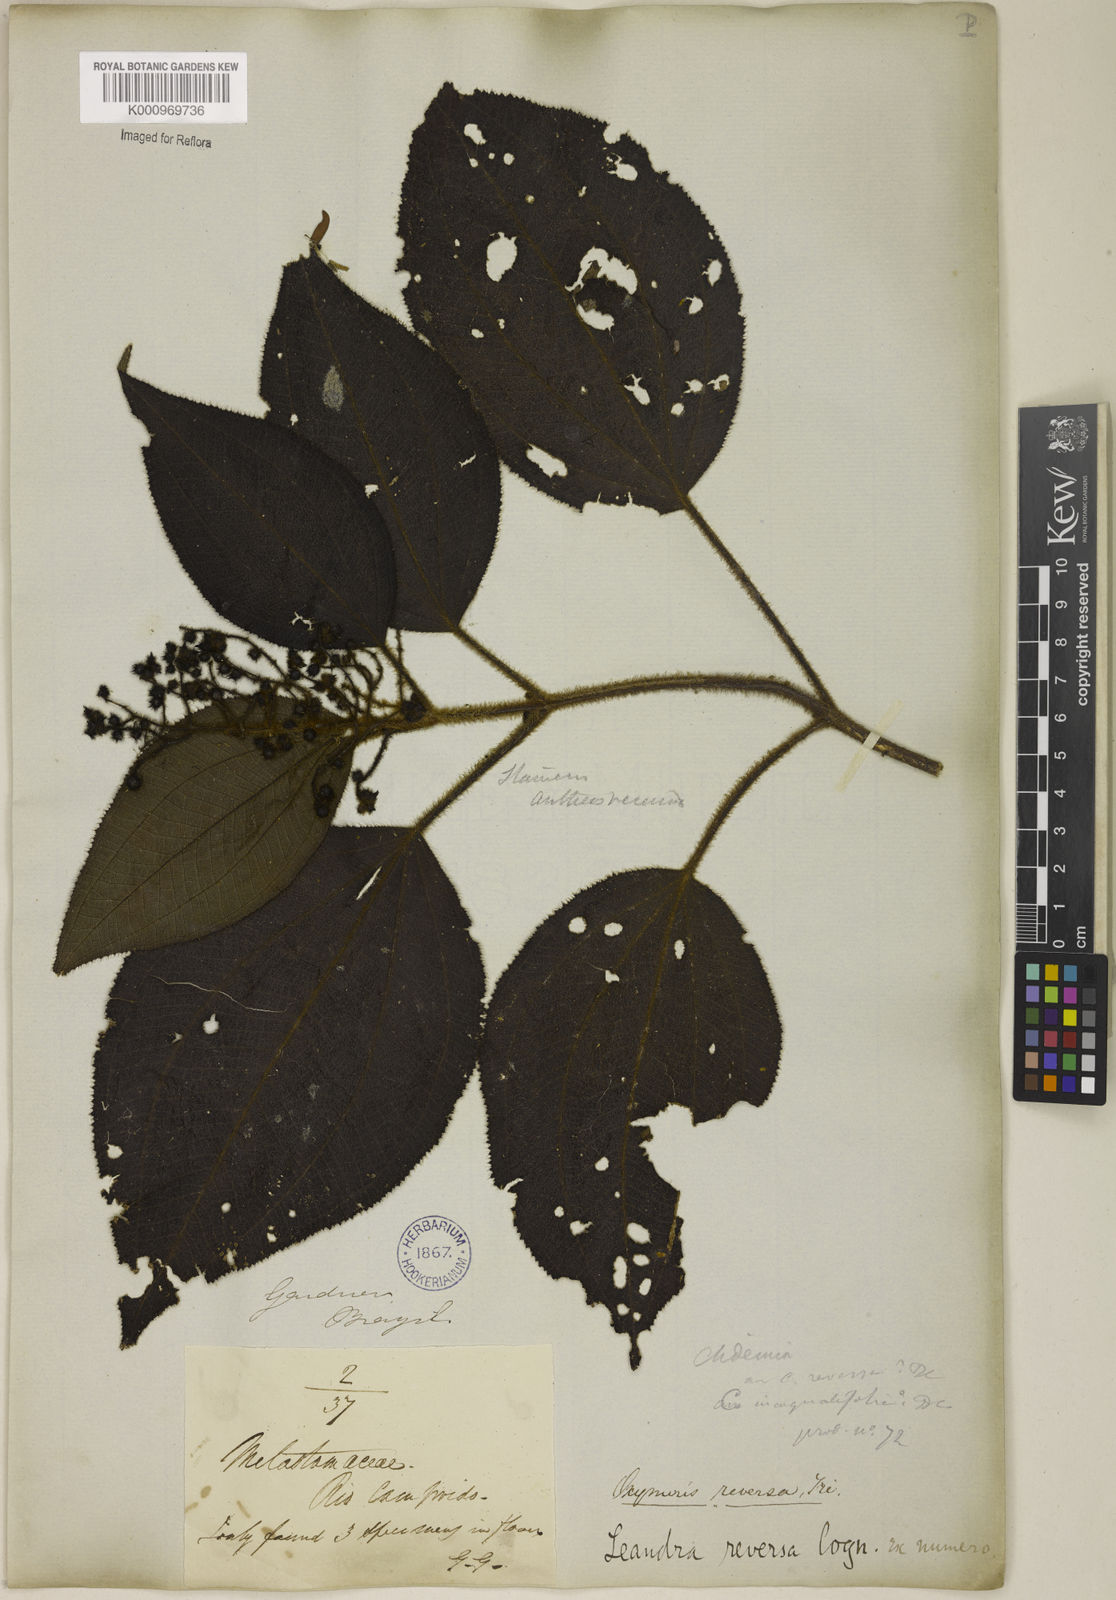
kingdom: Plantae
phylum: Tracheophyta
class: Magnoliopsida
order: Myrtales
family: Melastomataceae
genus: Miconia
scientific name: Miconia reversa
